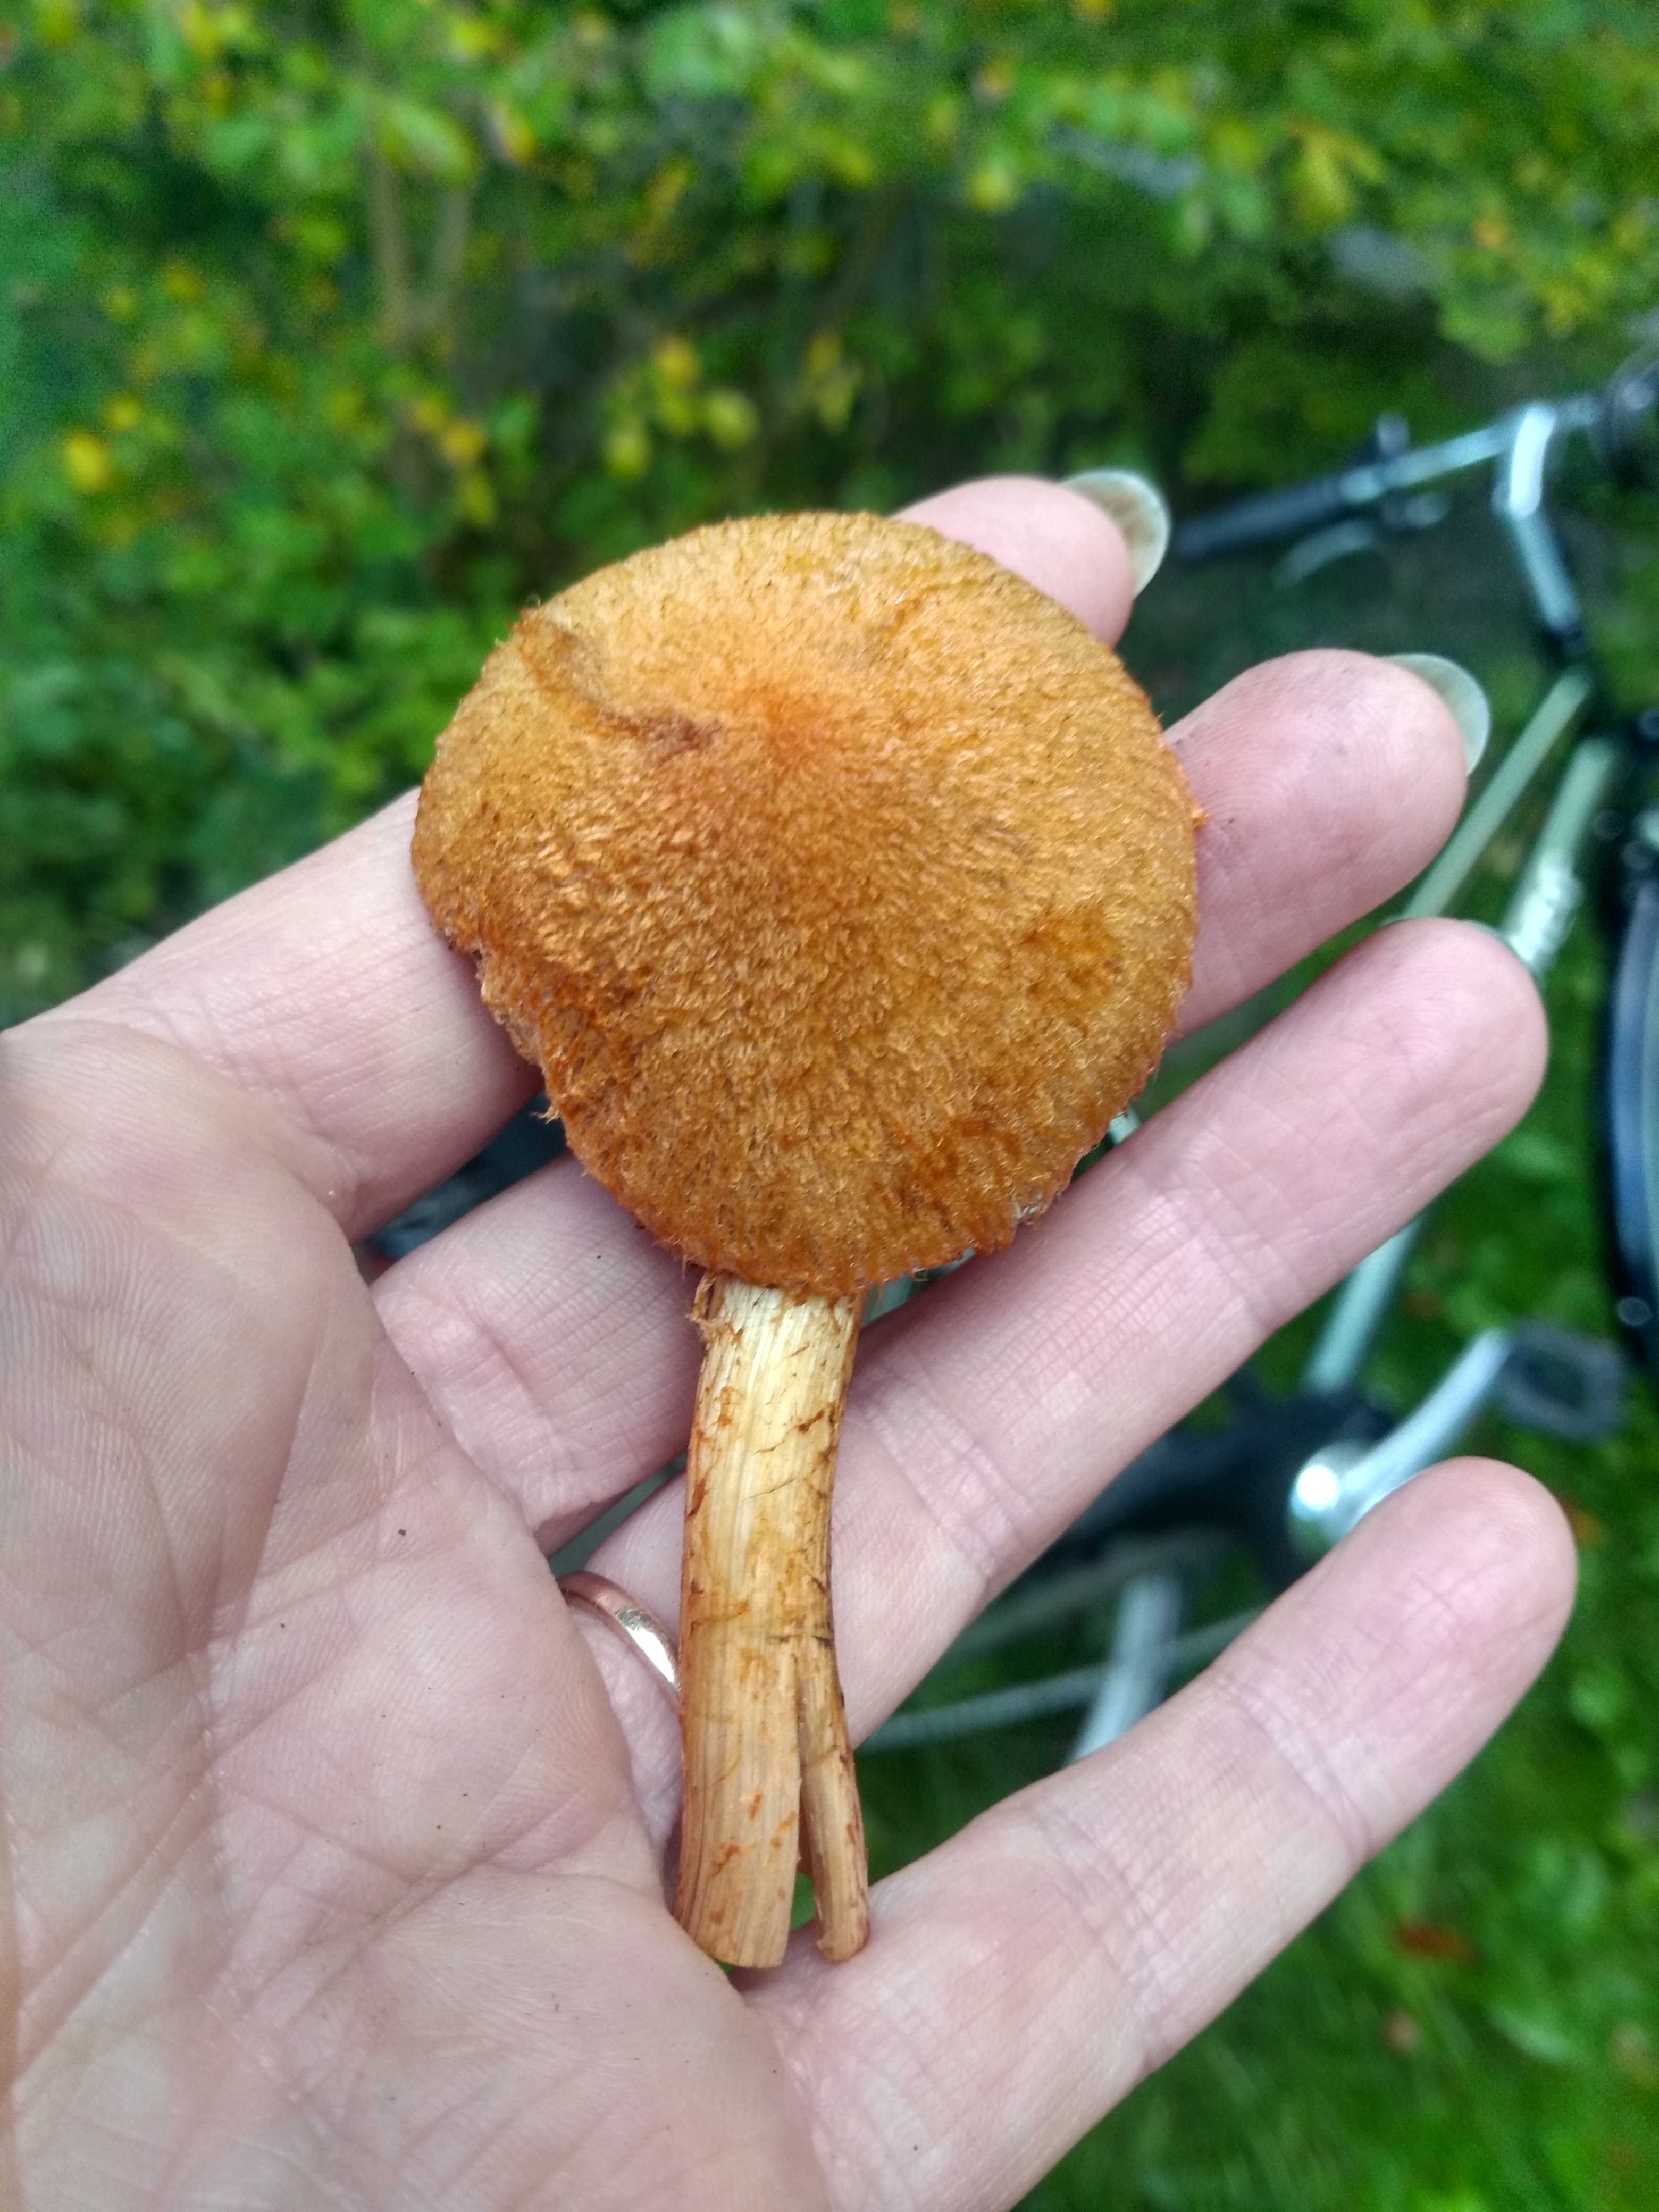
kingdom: Fungi
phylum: Basidiomycota
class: Agaricomycetes
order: Agaricales
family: Psathyrellaceae
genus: Lacrymaria
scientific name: Lacrymaria pyrotricha
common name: ildhåret mørkhat
